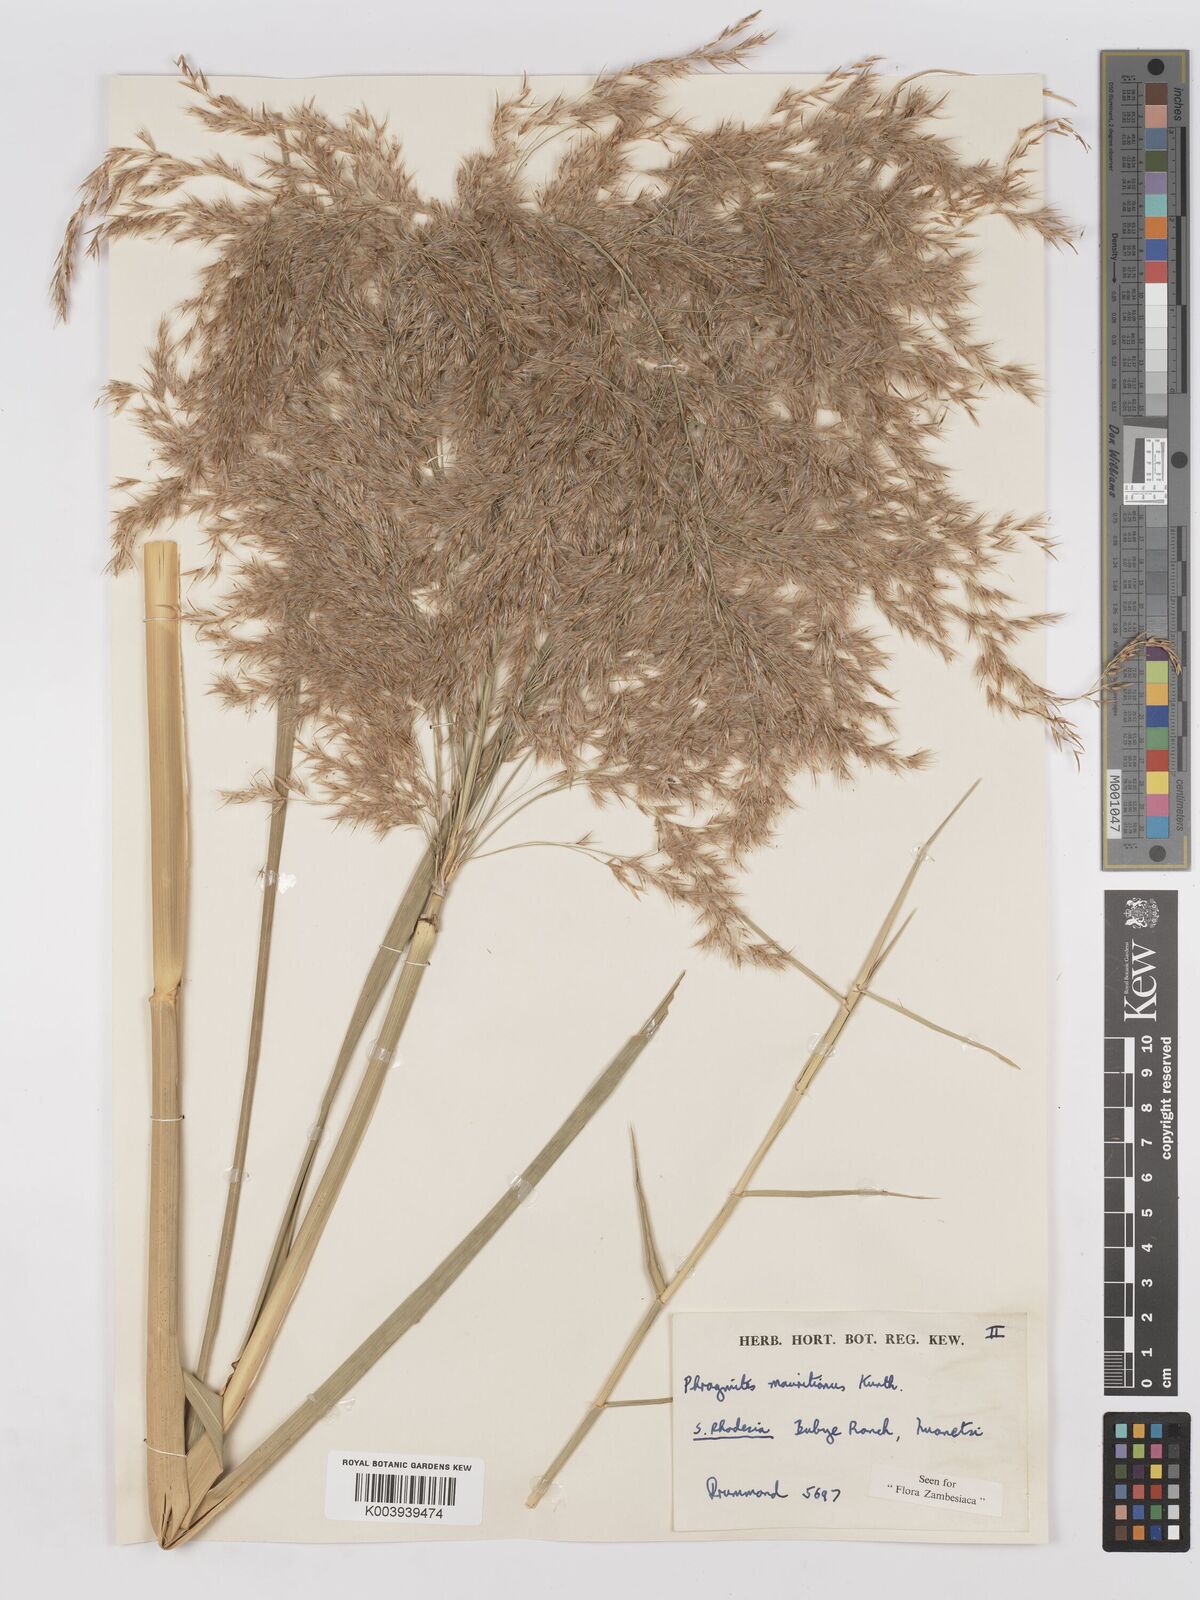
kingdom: Plantae
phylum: Tracheophyta
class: Liliopsida
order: Poales
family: Poaceae
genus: Phragmites
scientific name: Phragmites mauritianus
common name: Reed grass
